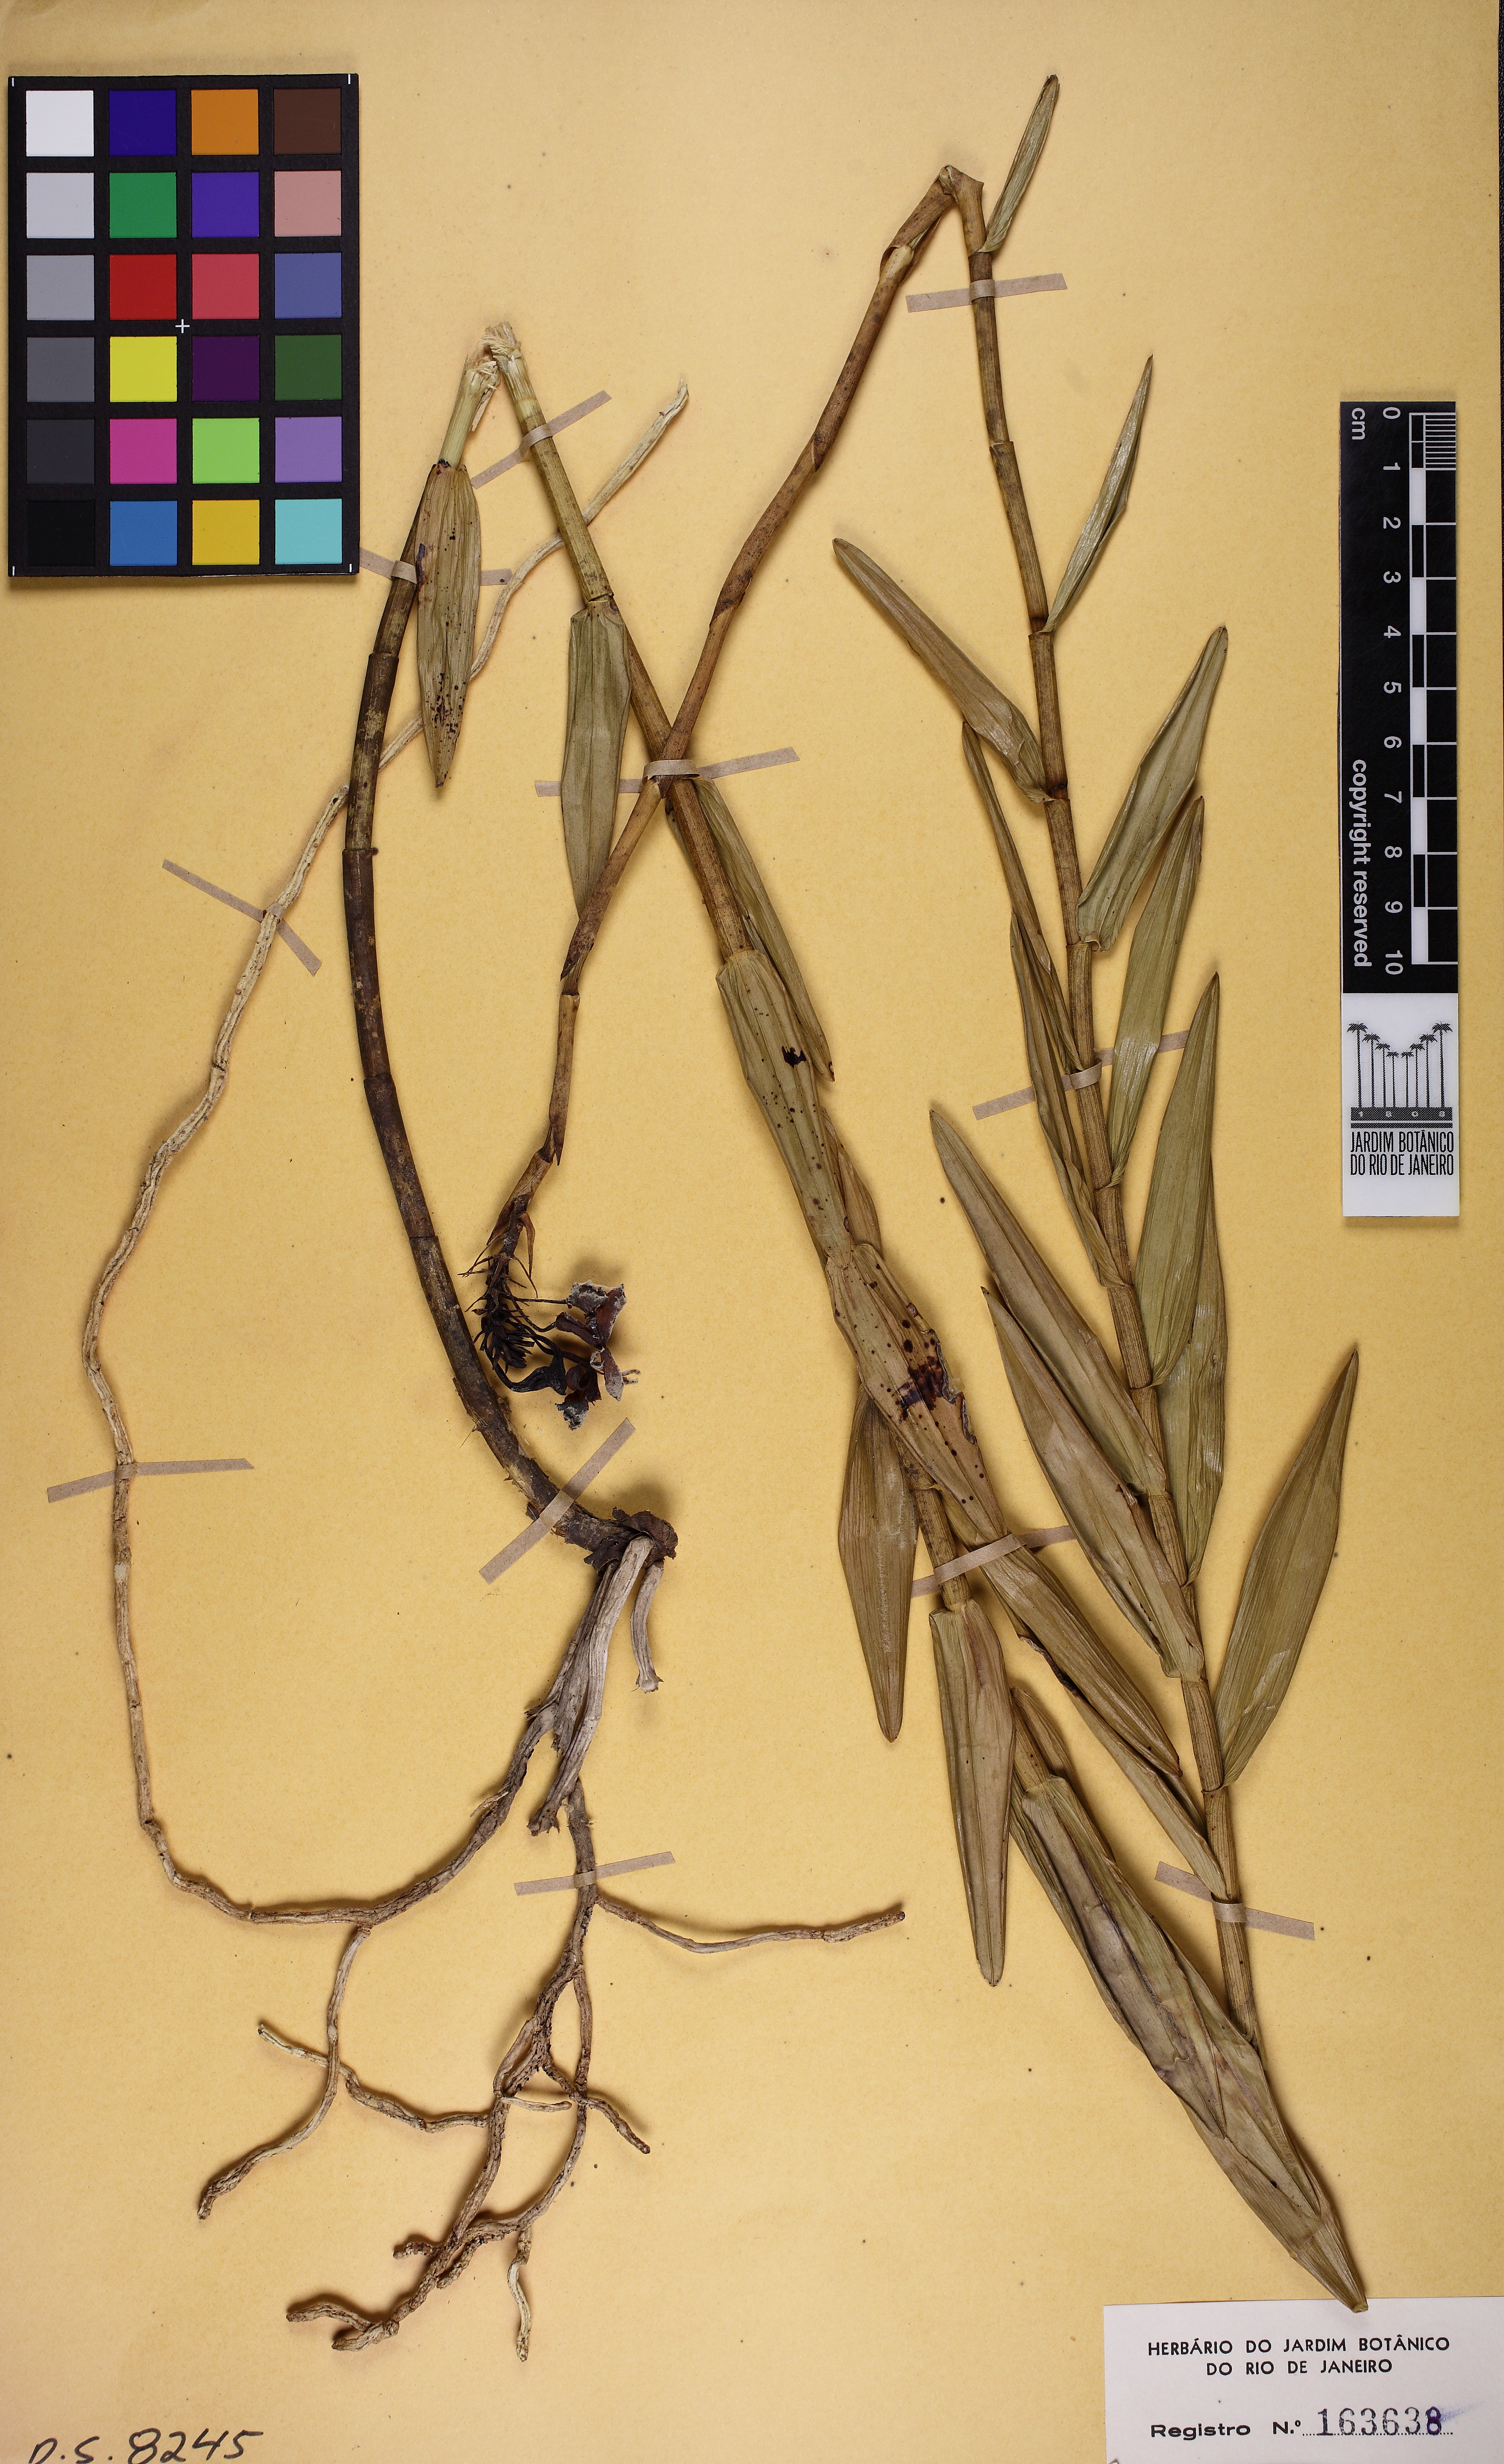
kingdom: Plantae
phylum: Tracheophyta
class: Liliopsida
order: Asparagales
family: Orchidaceae
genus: Epidendrum
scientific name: Epidendrum orchidiflorum
